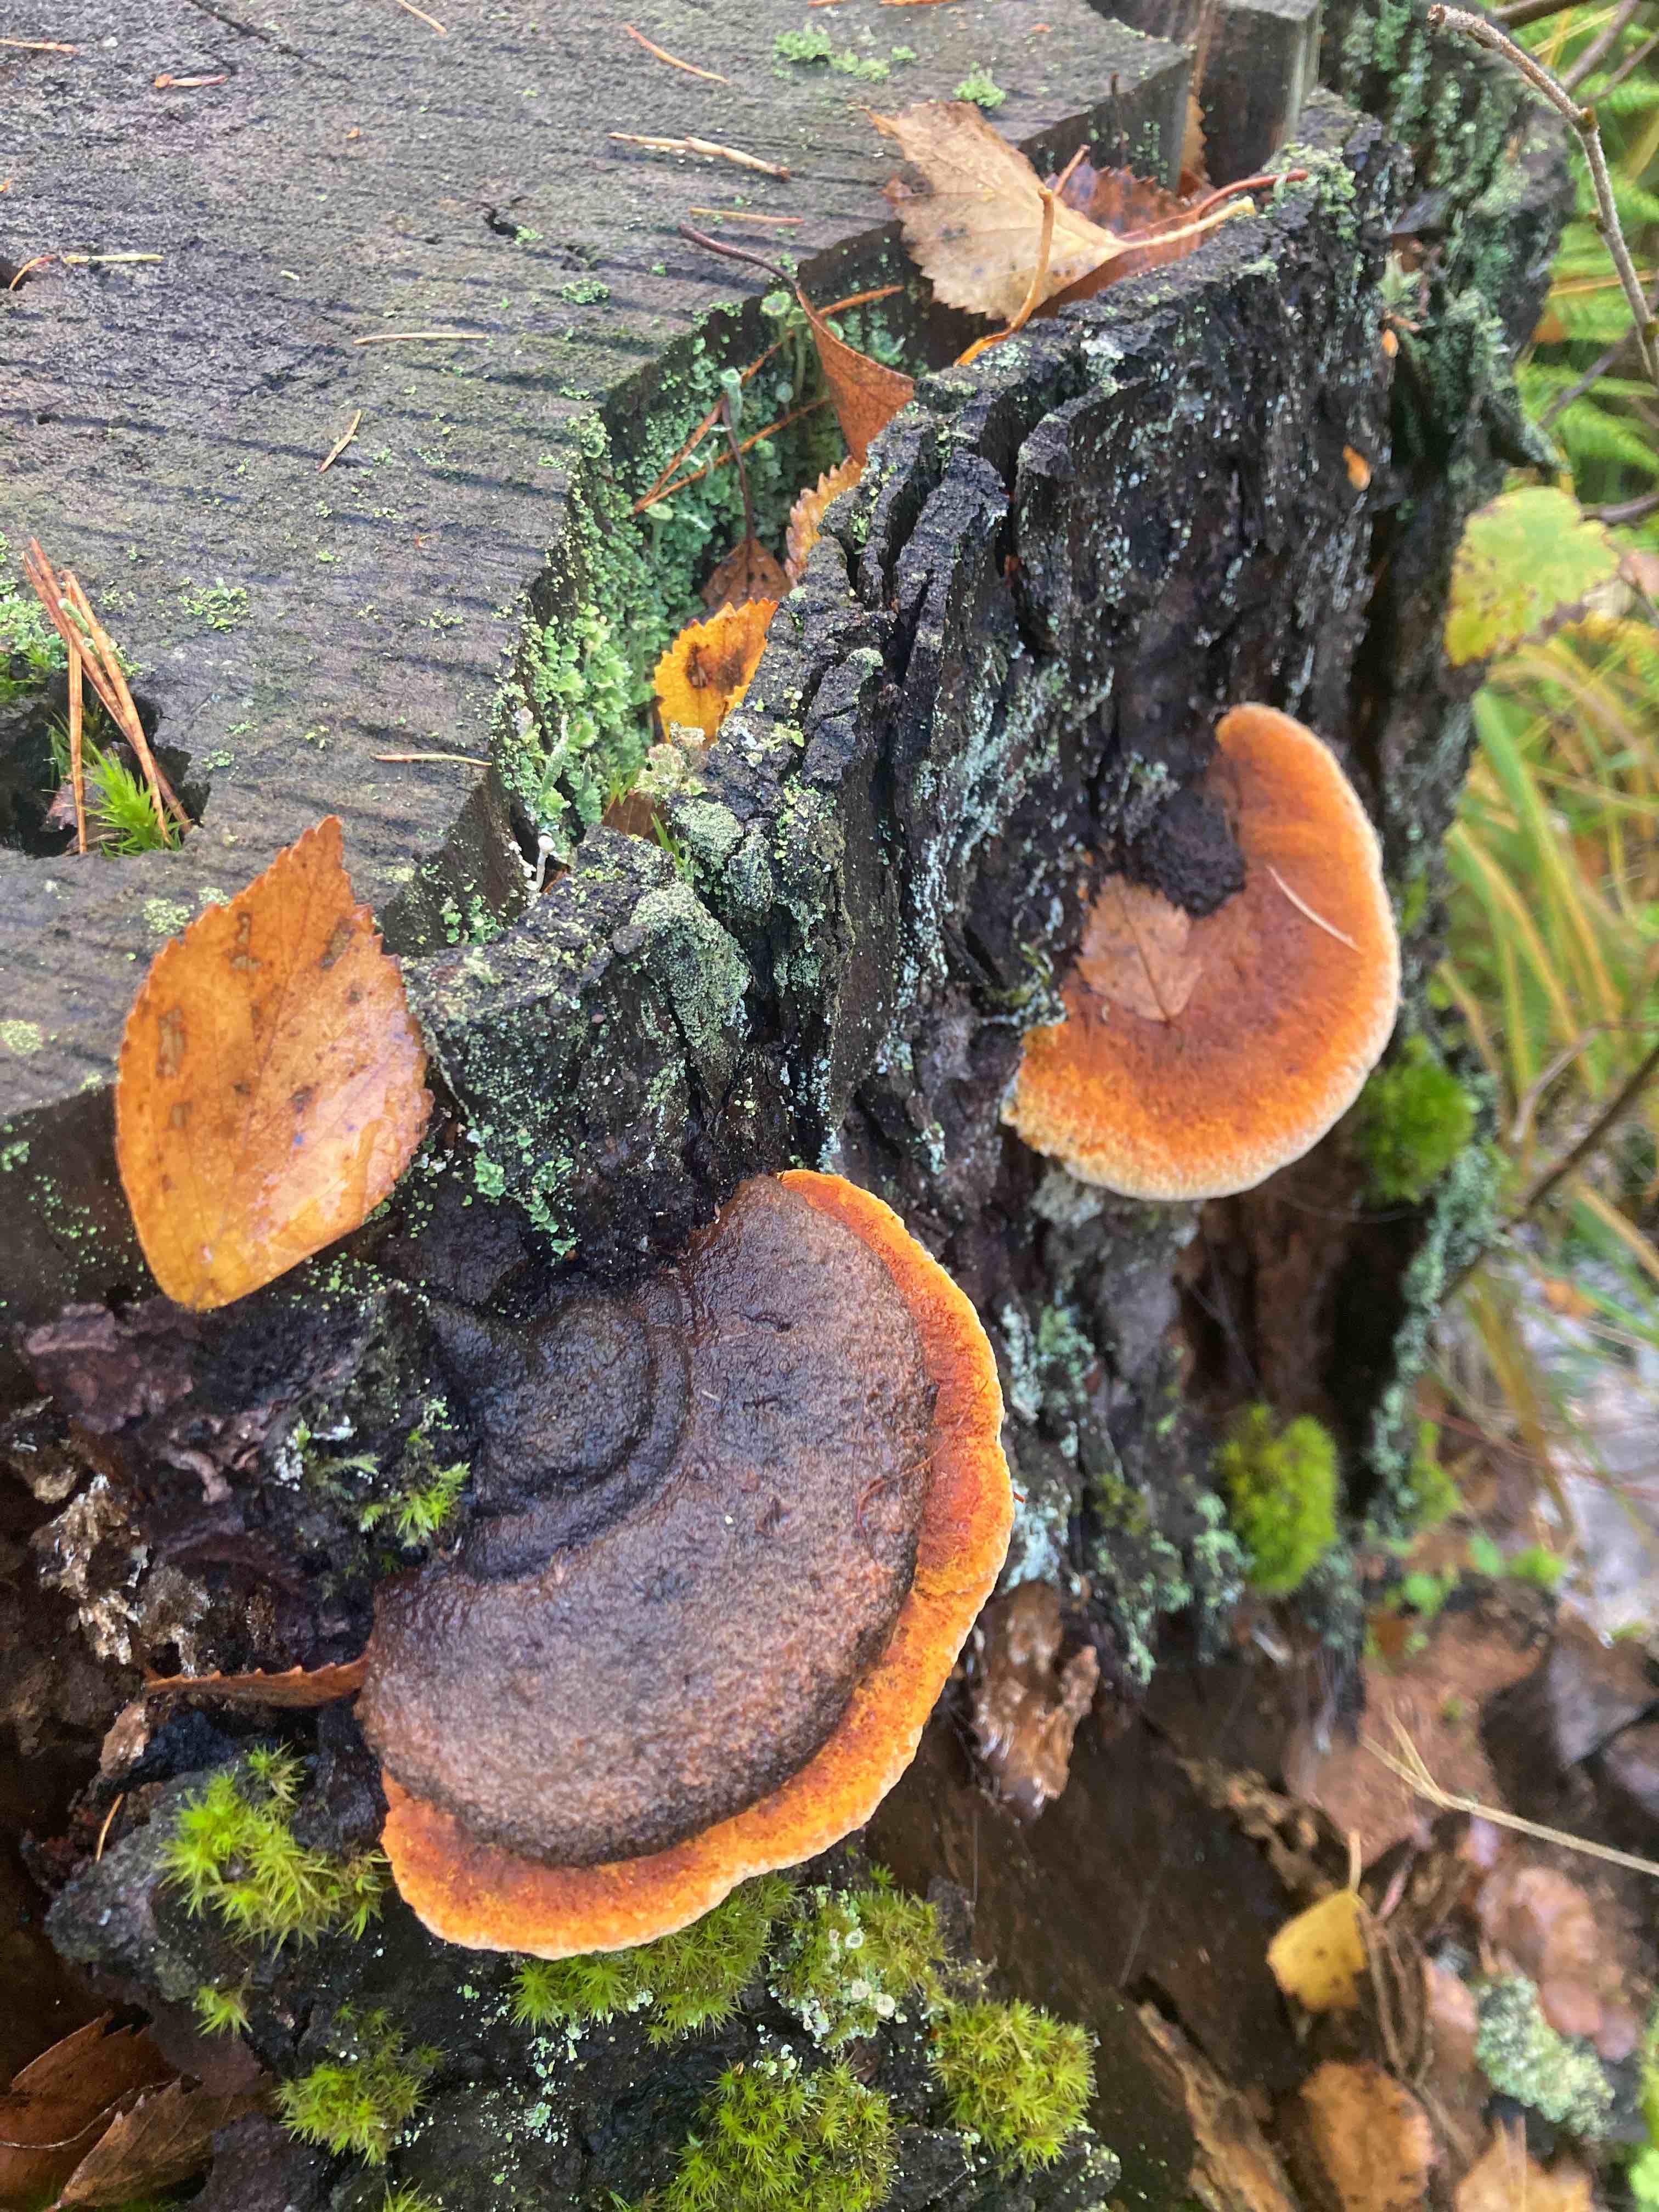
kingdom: Fungi
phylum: Basidiomycota
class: Agaricomycetes
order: Gloeophyllales
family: Gloeophyllaceae
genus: Gloeophyllum
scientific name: Gloeophyllum odoratum
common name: duftende korkhat
